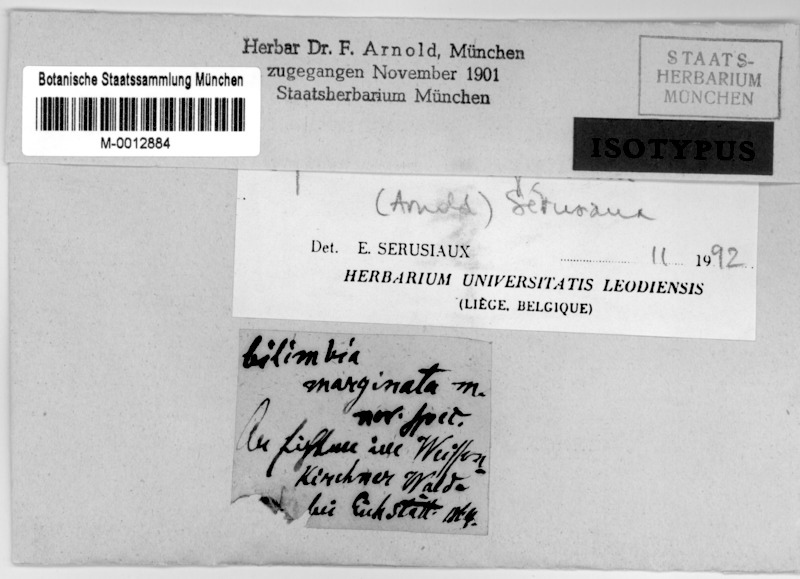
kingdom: Fungi
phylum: Ascomycota
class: Lecanoromycetes
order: Lecanorales
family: Byssolomataceae
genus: Byssoloma
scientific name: Byssoloma marginatum
